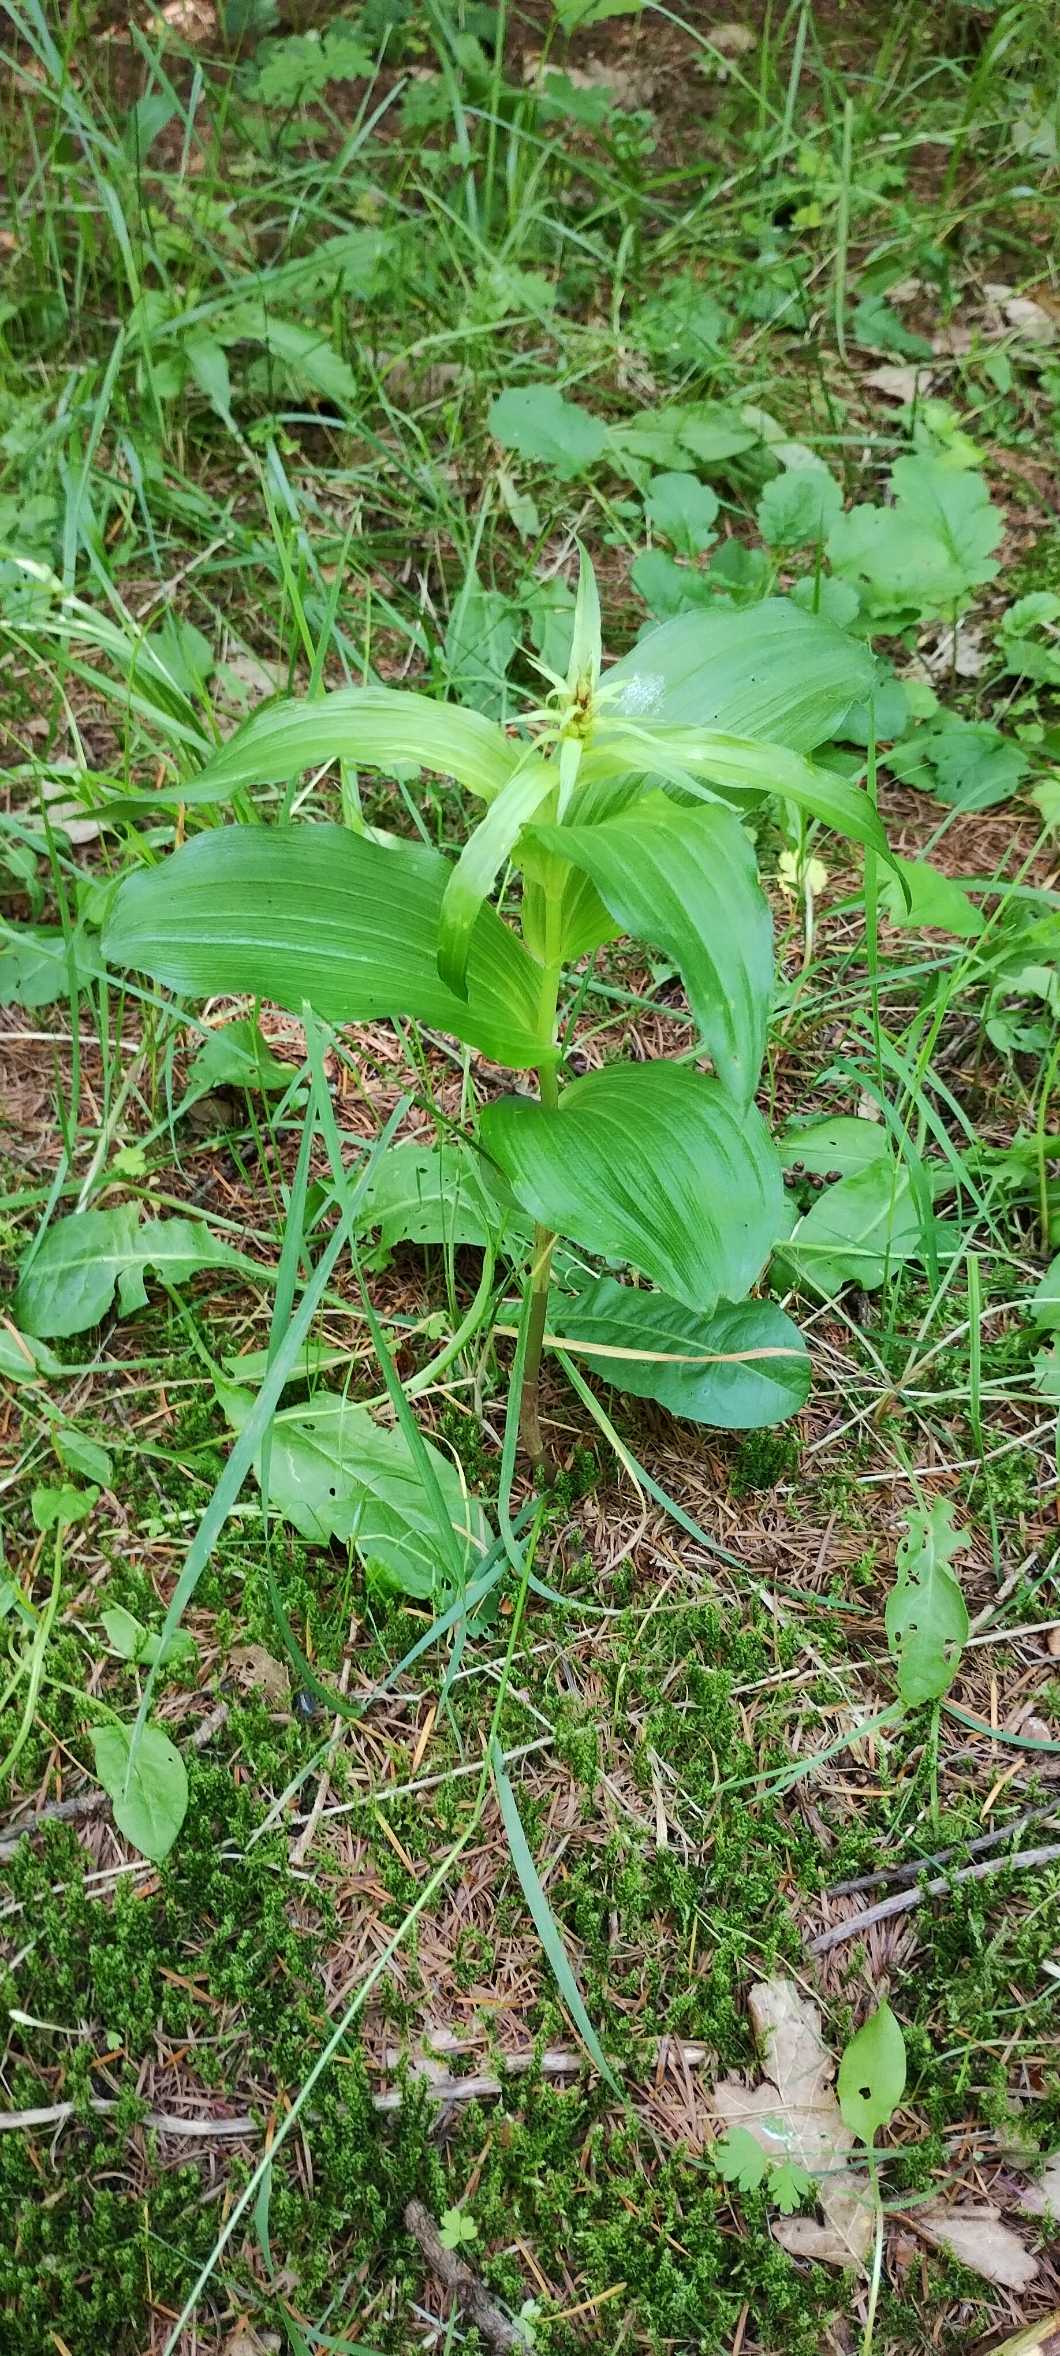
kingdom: Plantae
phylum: Tracheophyta
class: Liliopsida
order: Asparagales
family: Orchidaceae
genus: Epipactis
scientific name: Epipactis helleborine
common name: Skov-hullæbe
